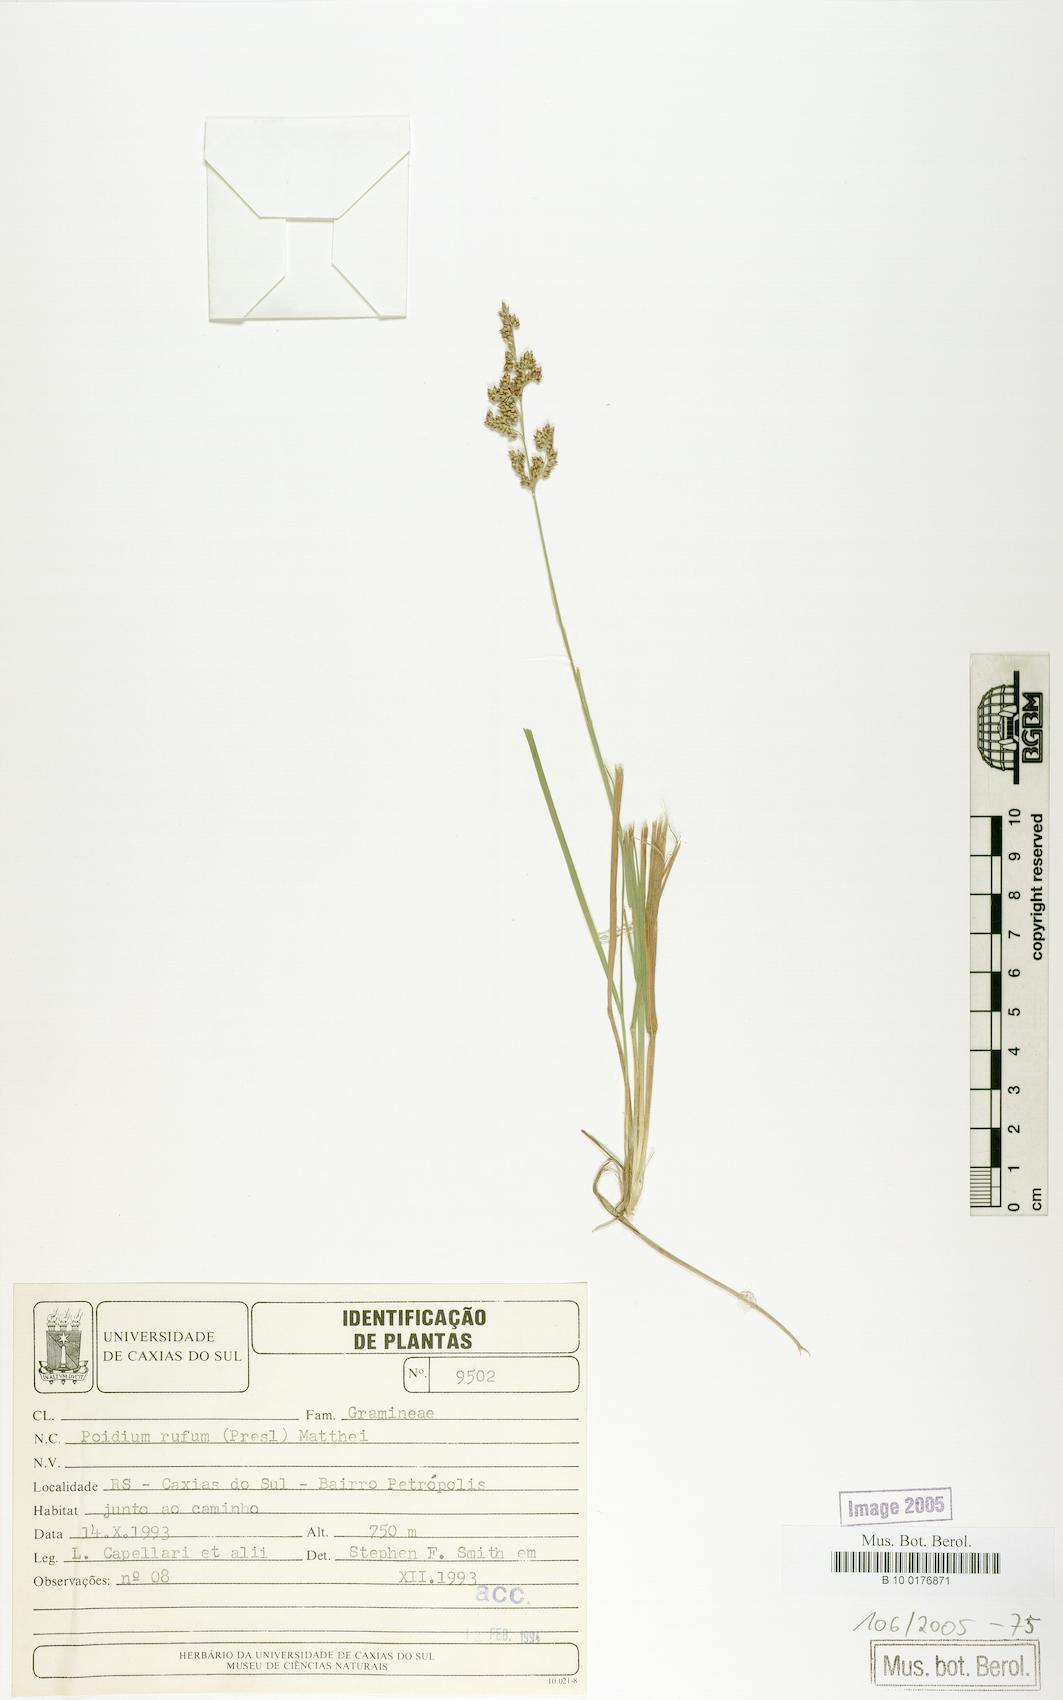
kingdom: Plantae
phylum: Tracheophyta
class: Liliopsida
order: Poales
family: Poaceae
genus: Lombardochloa
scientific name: Lombardochloa rufa
